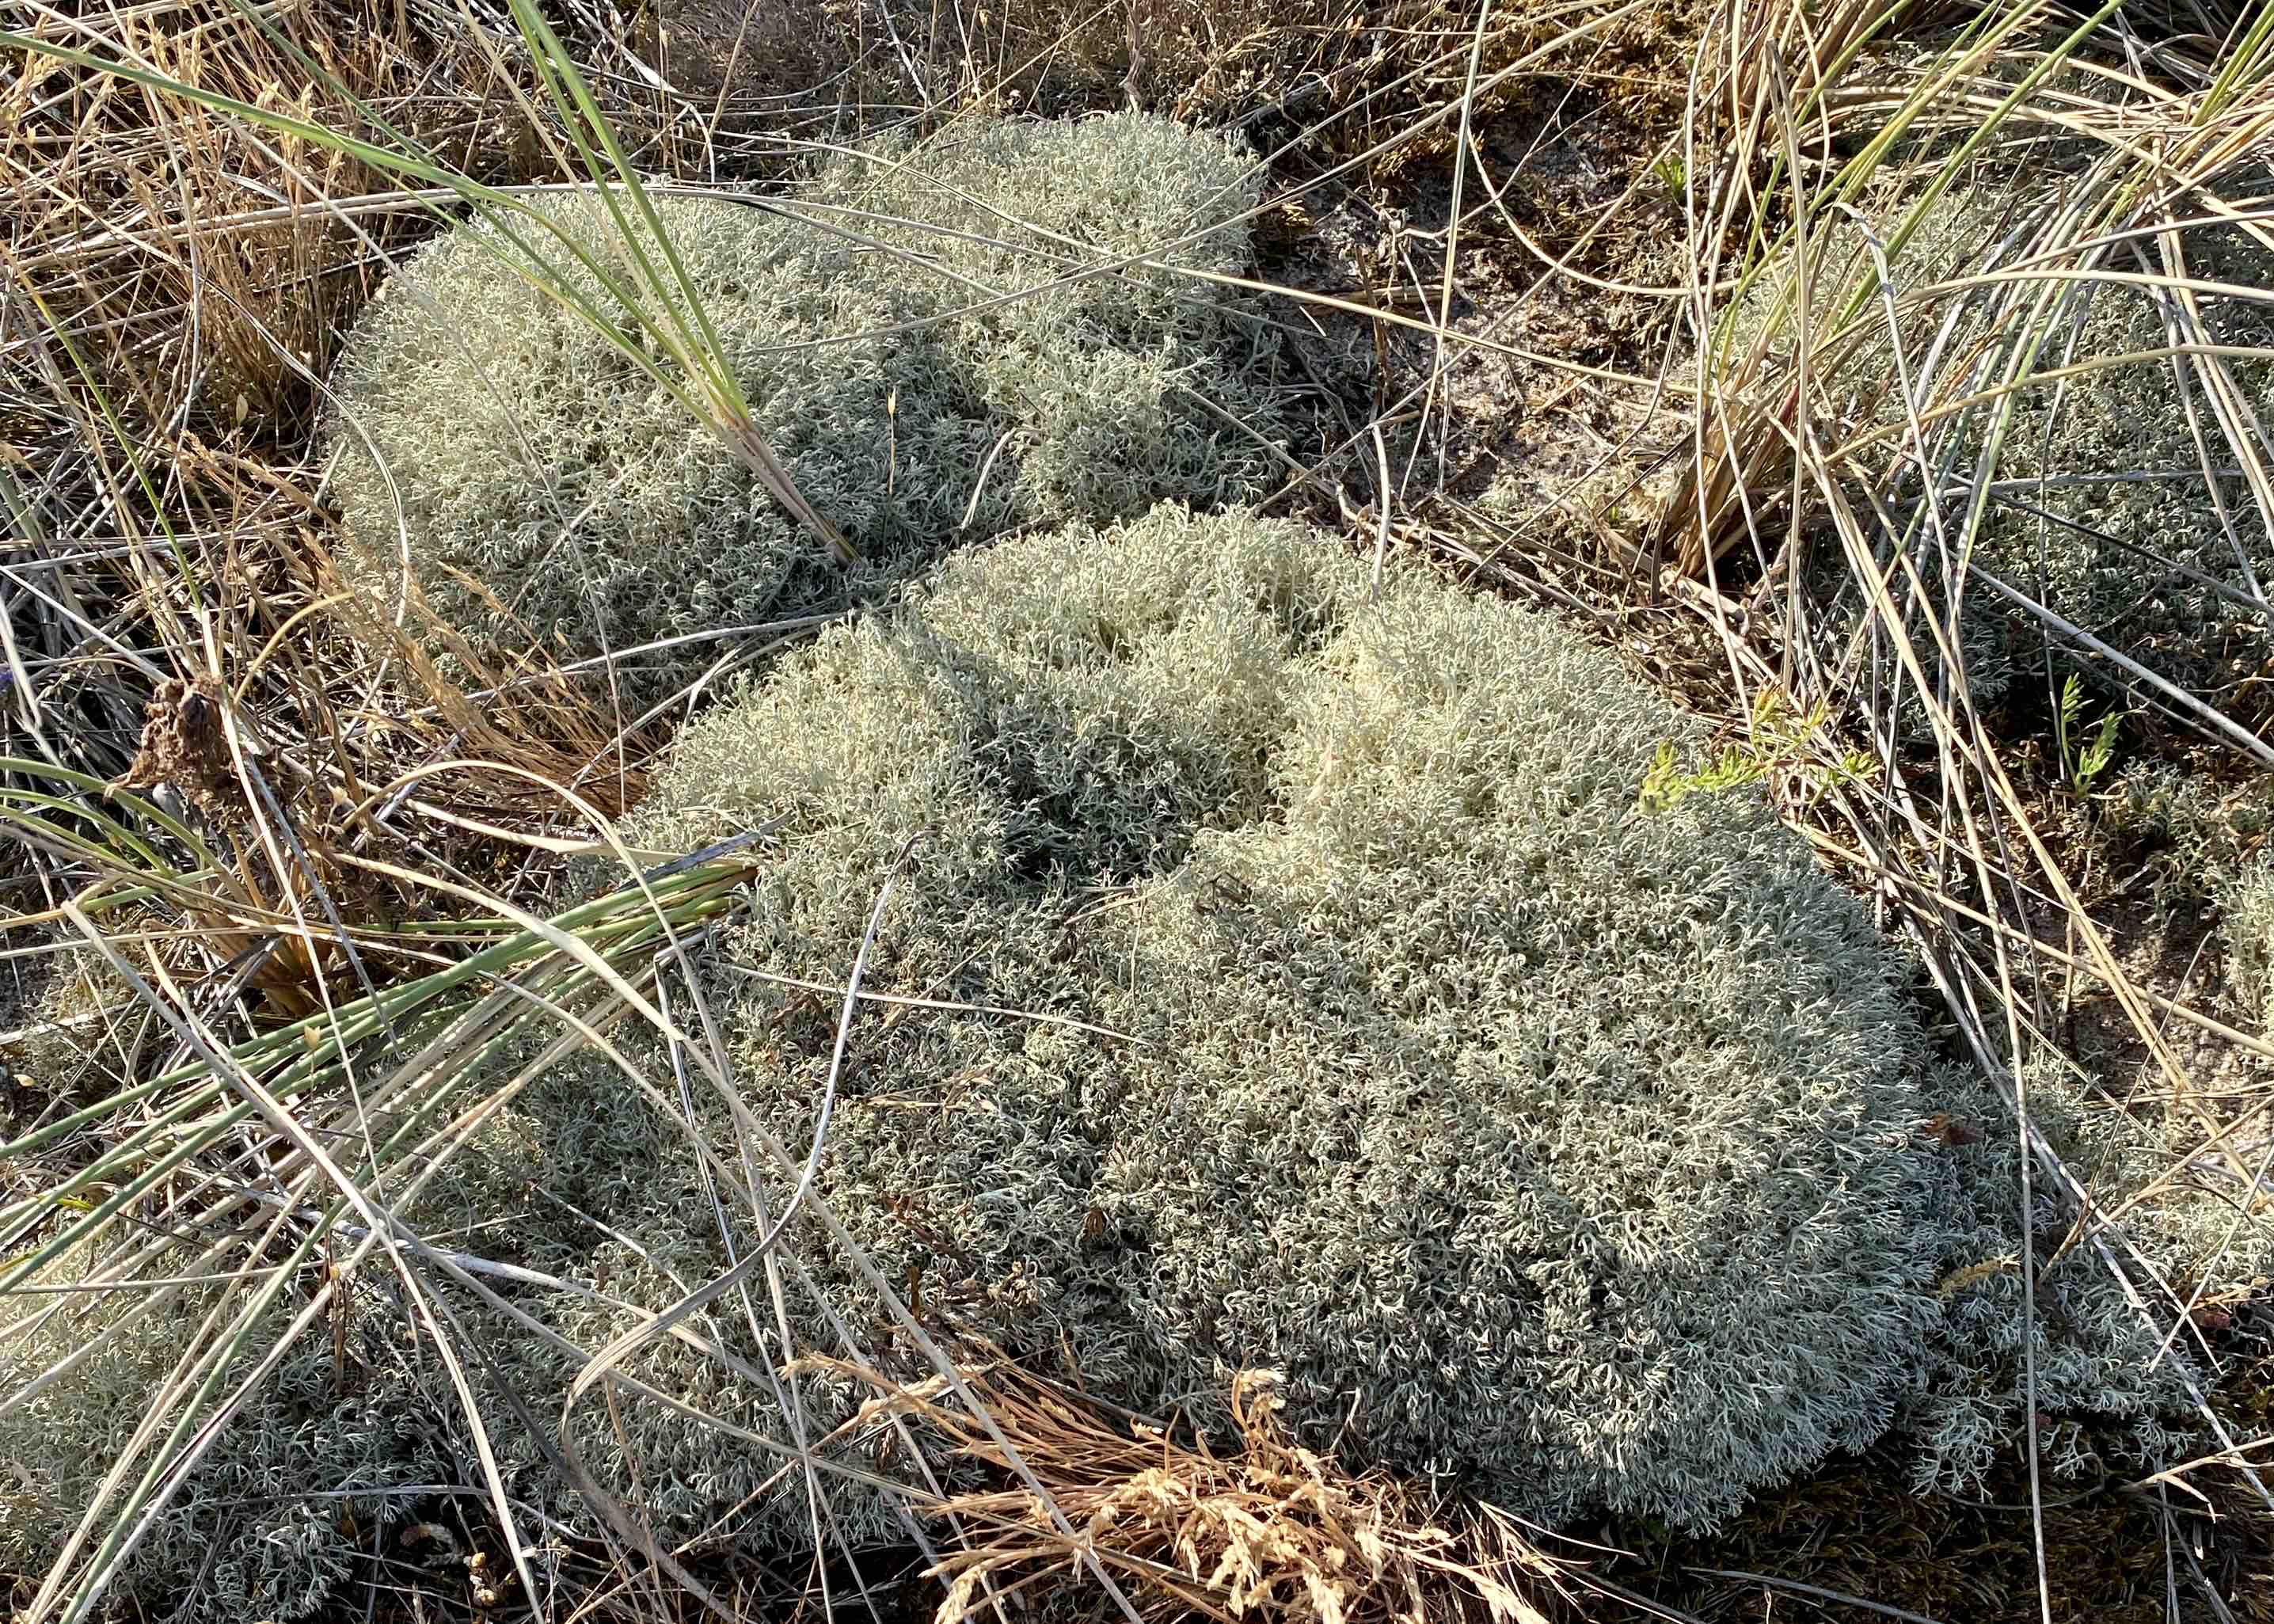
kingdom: Fungi
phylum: Ascomycota
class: Lecanoromycetes
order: Lecanorales
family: Cladoniaceae
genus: Cladonia
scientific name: Cladonia
